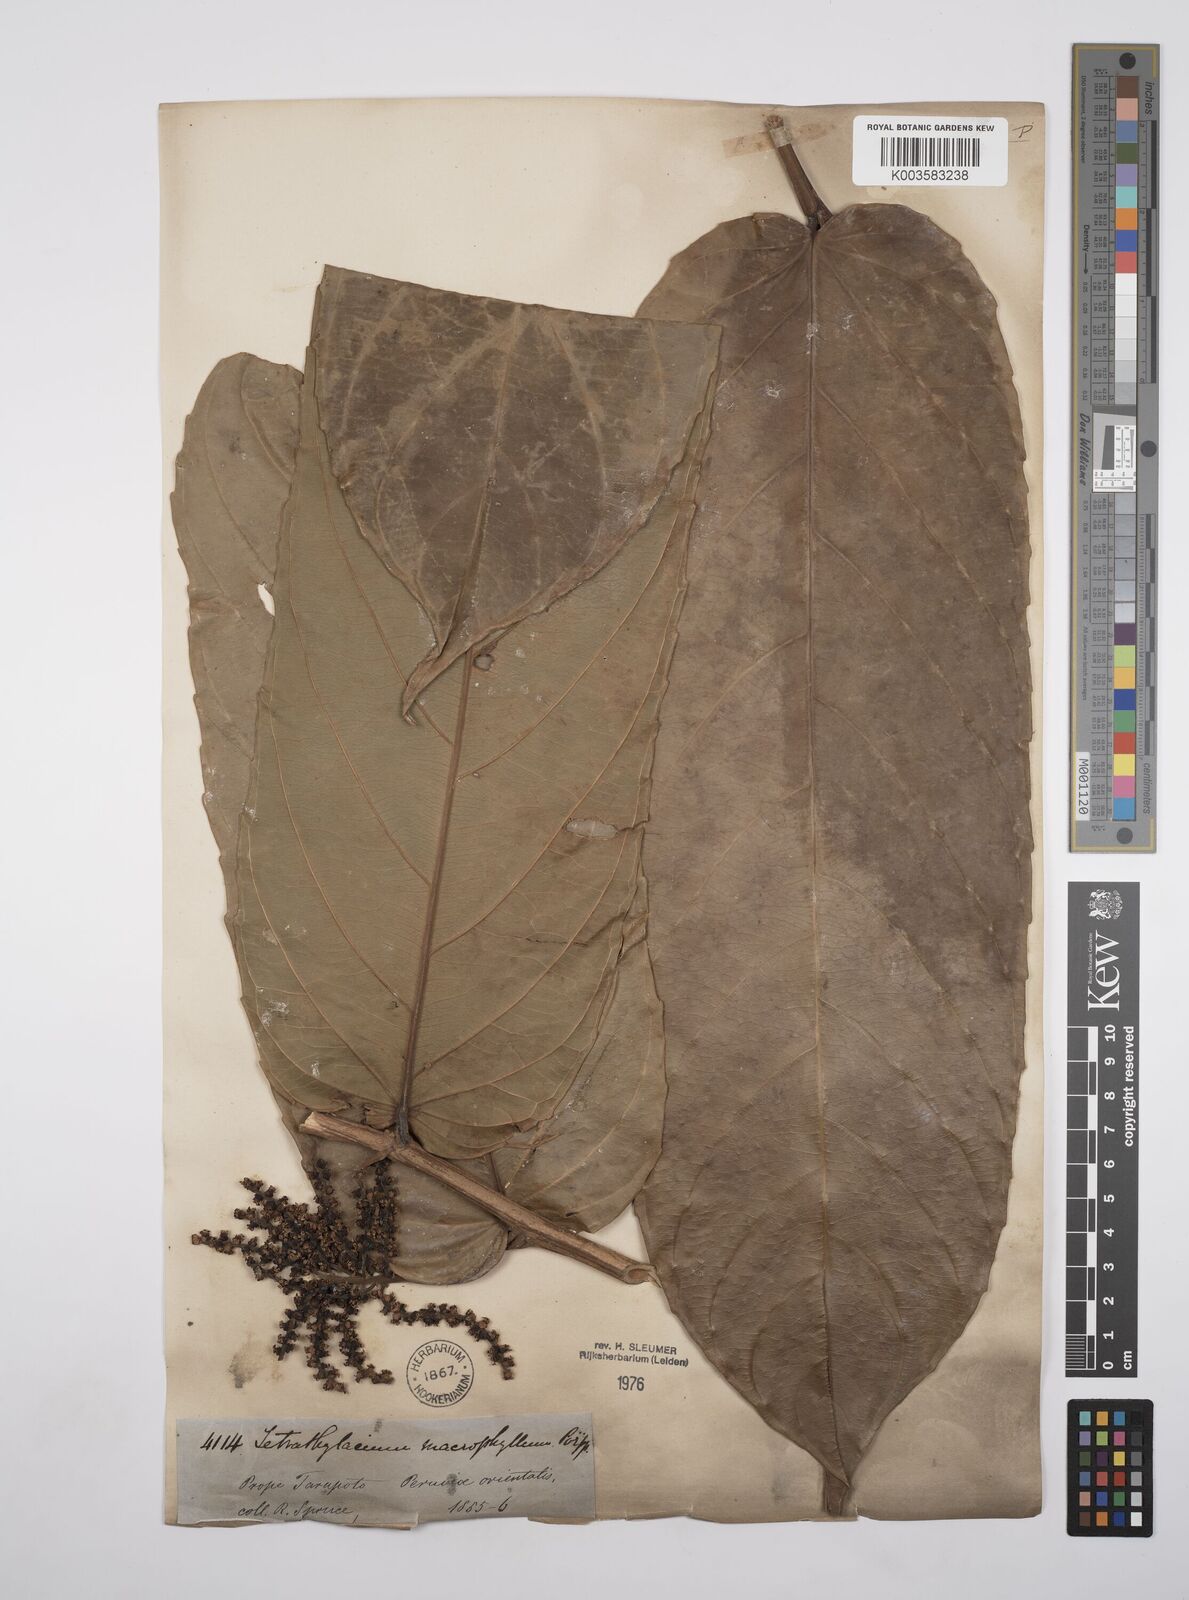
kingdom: Plantae
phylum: Tracheophyta
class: Magnoliopsida
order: Malpighiales
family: Salicaceae
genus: Tetrathylacium
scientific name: Tetrathylacium macrophyllum
